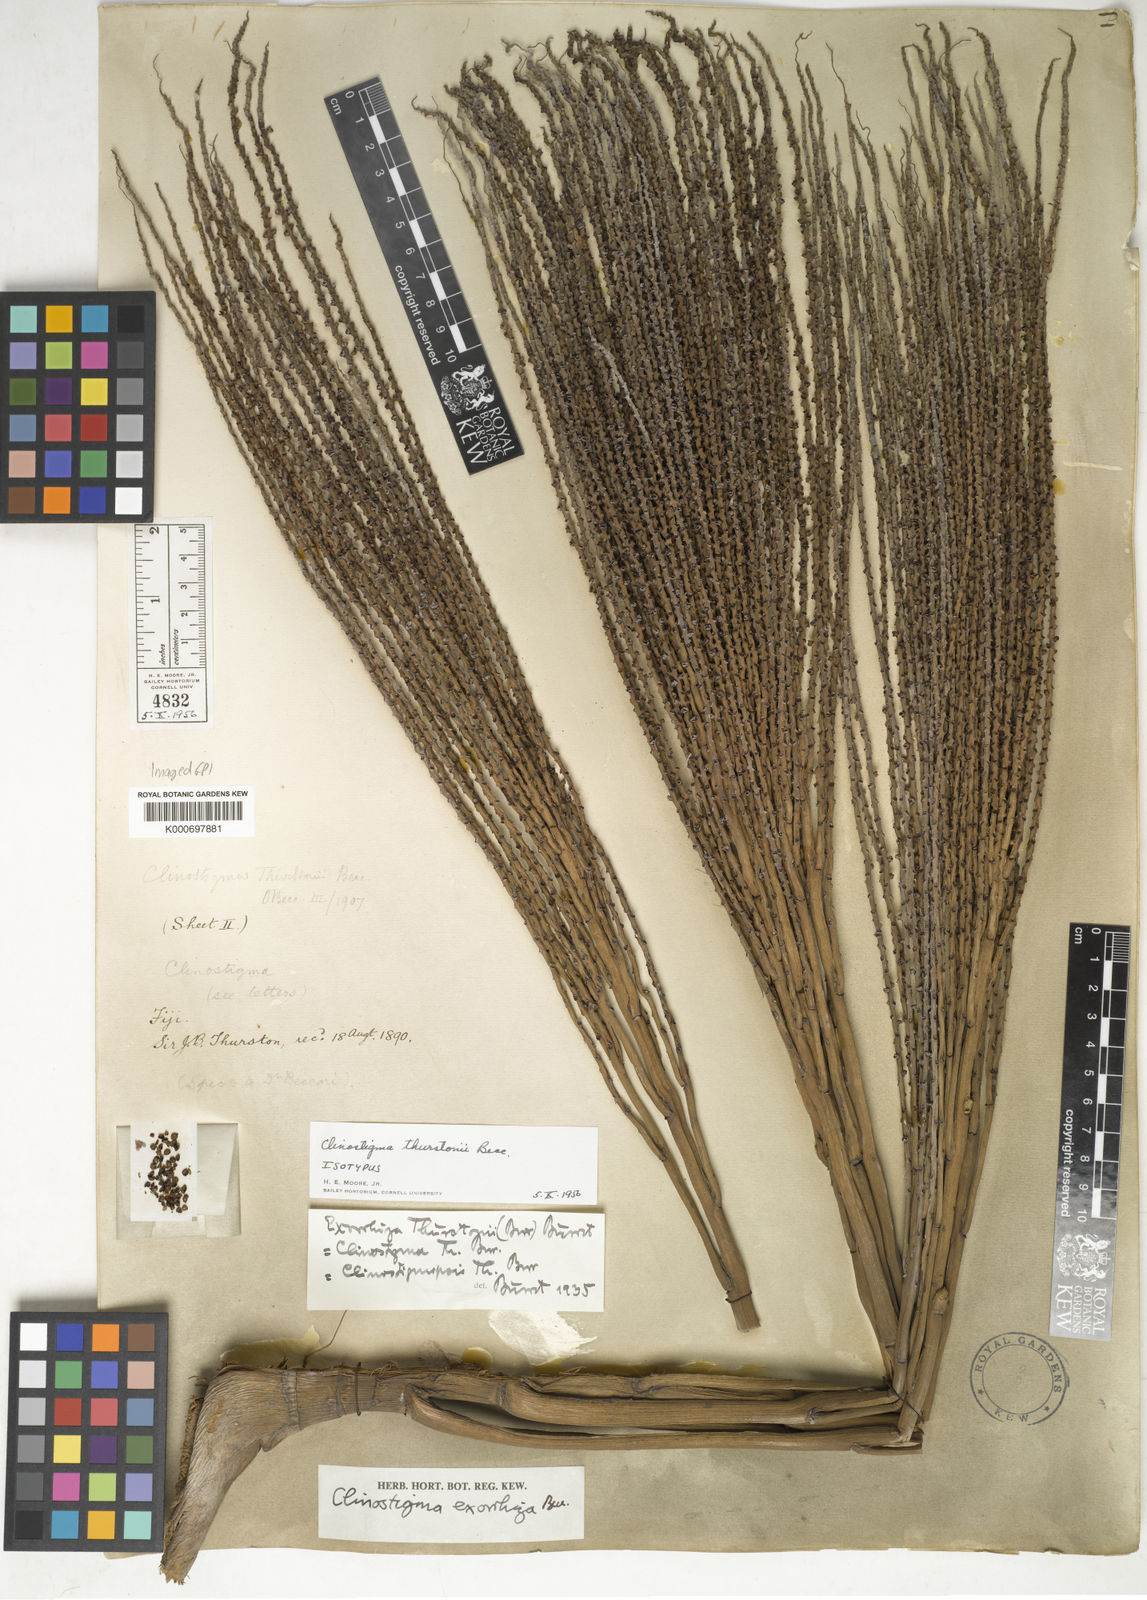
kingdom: Plantae
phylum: Tracheophyta
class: Liliopsida
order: Arecales
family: Arecaceae
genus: Clinostigma
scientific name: Clinostigma exorrhizum
